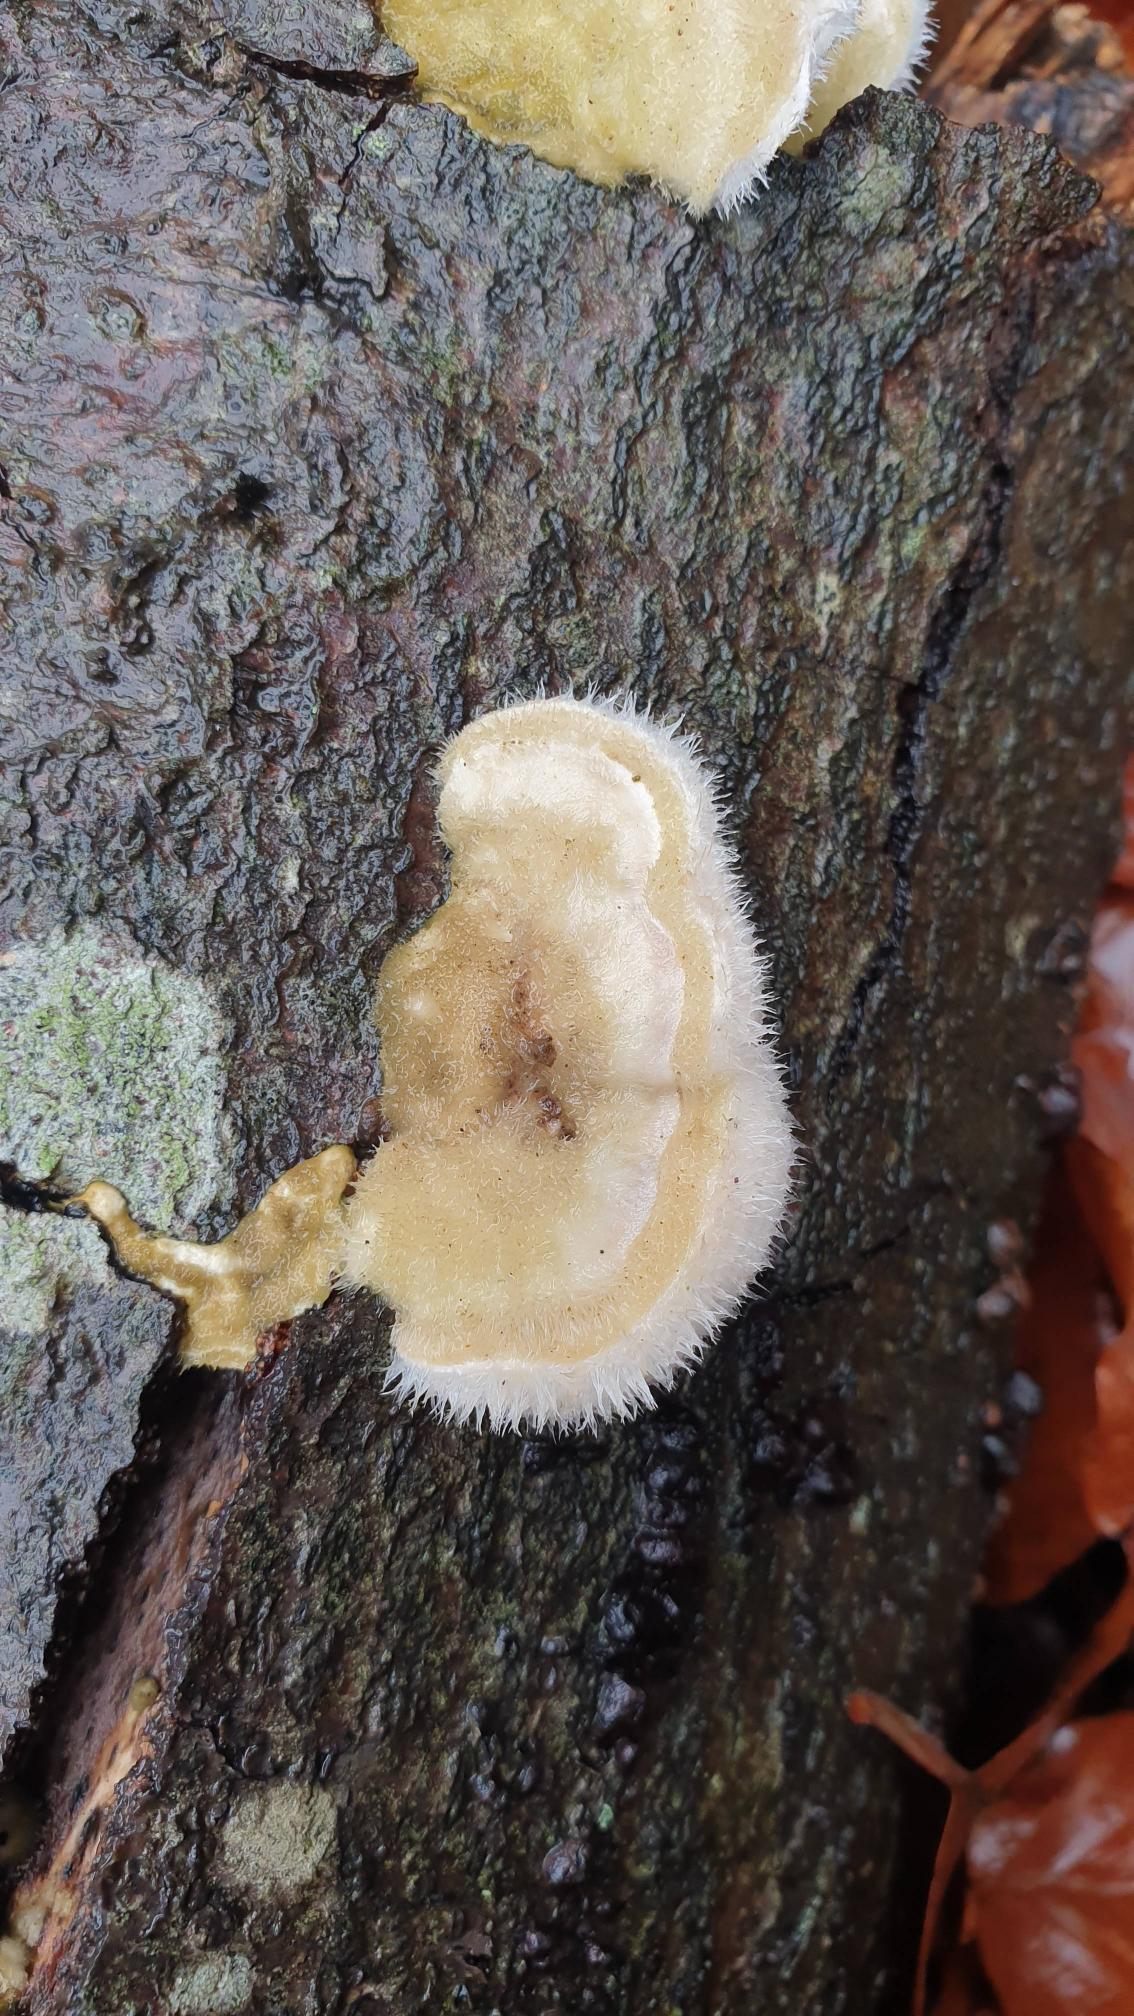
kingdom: Fungi
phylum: Basidiomycota
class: Agaricomycetes
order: Polyporales
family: Polyporaceae
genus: Trametes
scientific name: Trametes hirsuta
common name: Håret læderporesvamp
